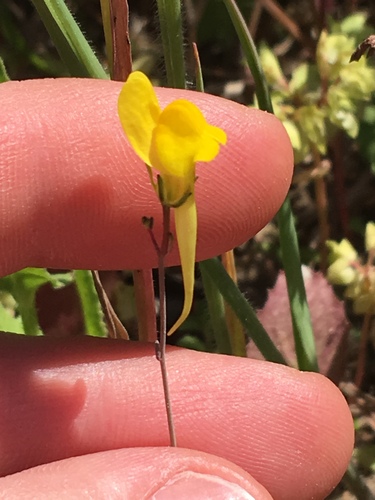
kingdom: Plantae
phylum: Tracheophyta
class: Magnoliopsida
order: Lamiales
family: Plantaginaceae
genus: Linaria
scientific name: Linaria spartea
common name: Ballast toadflax
